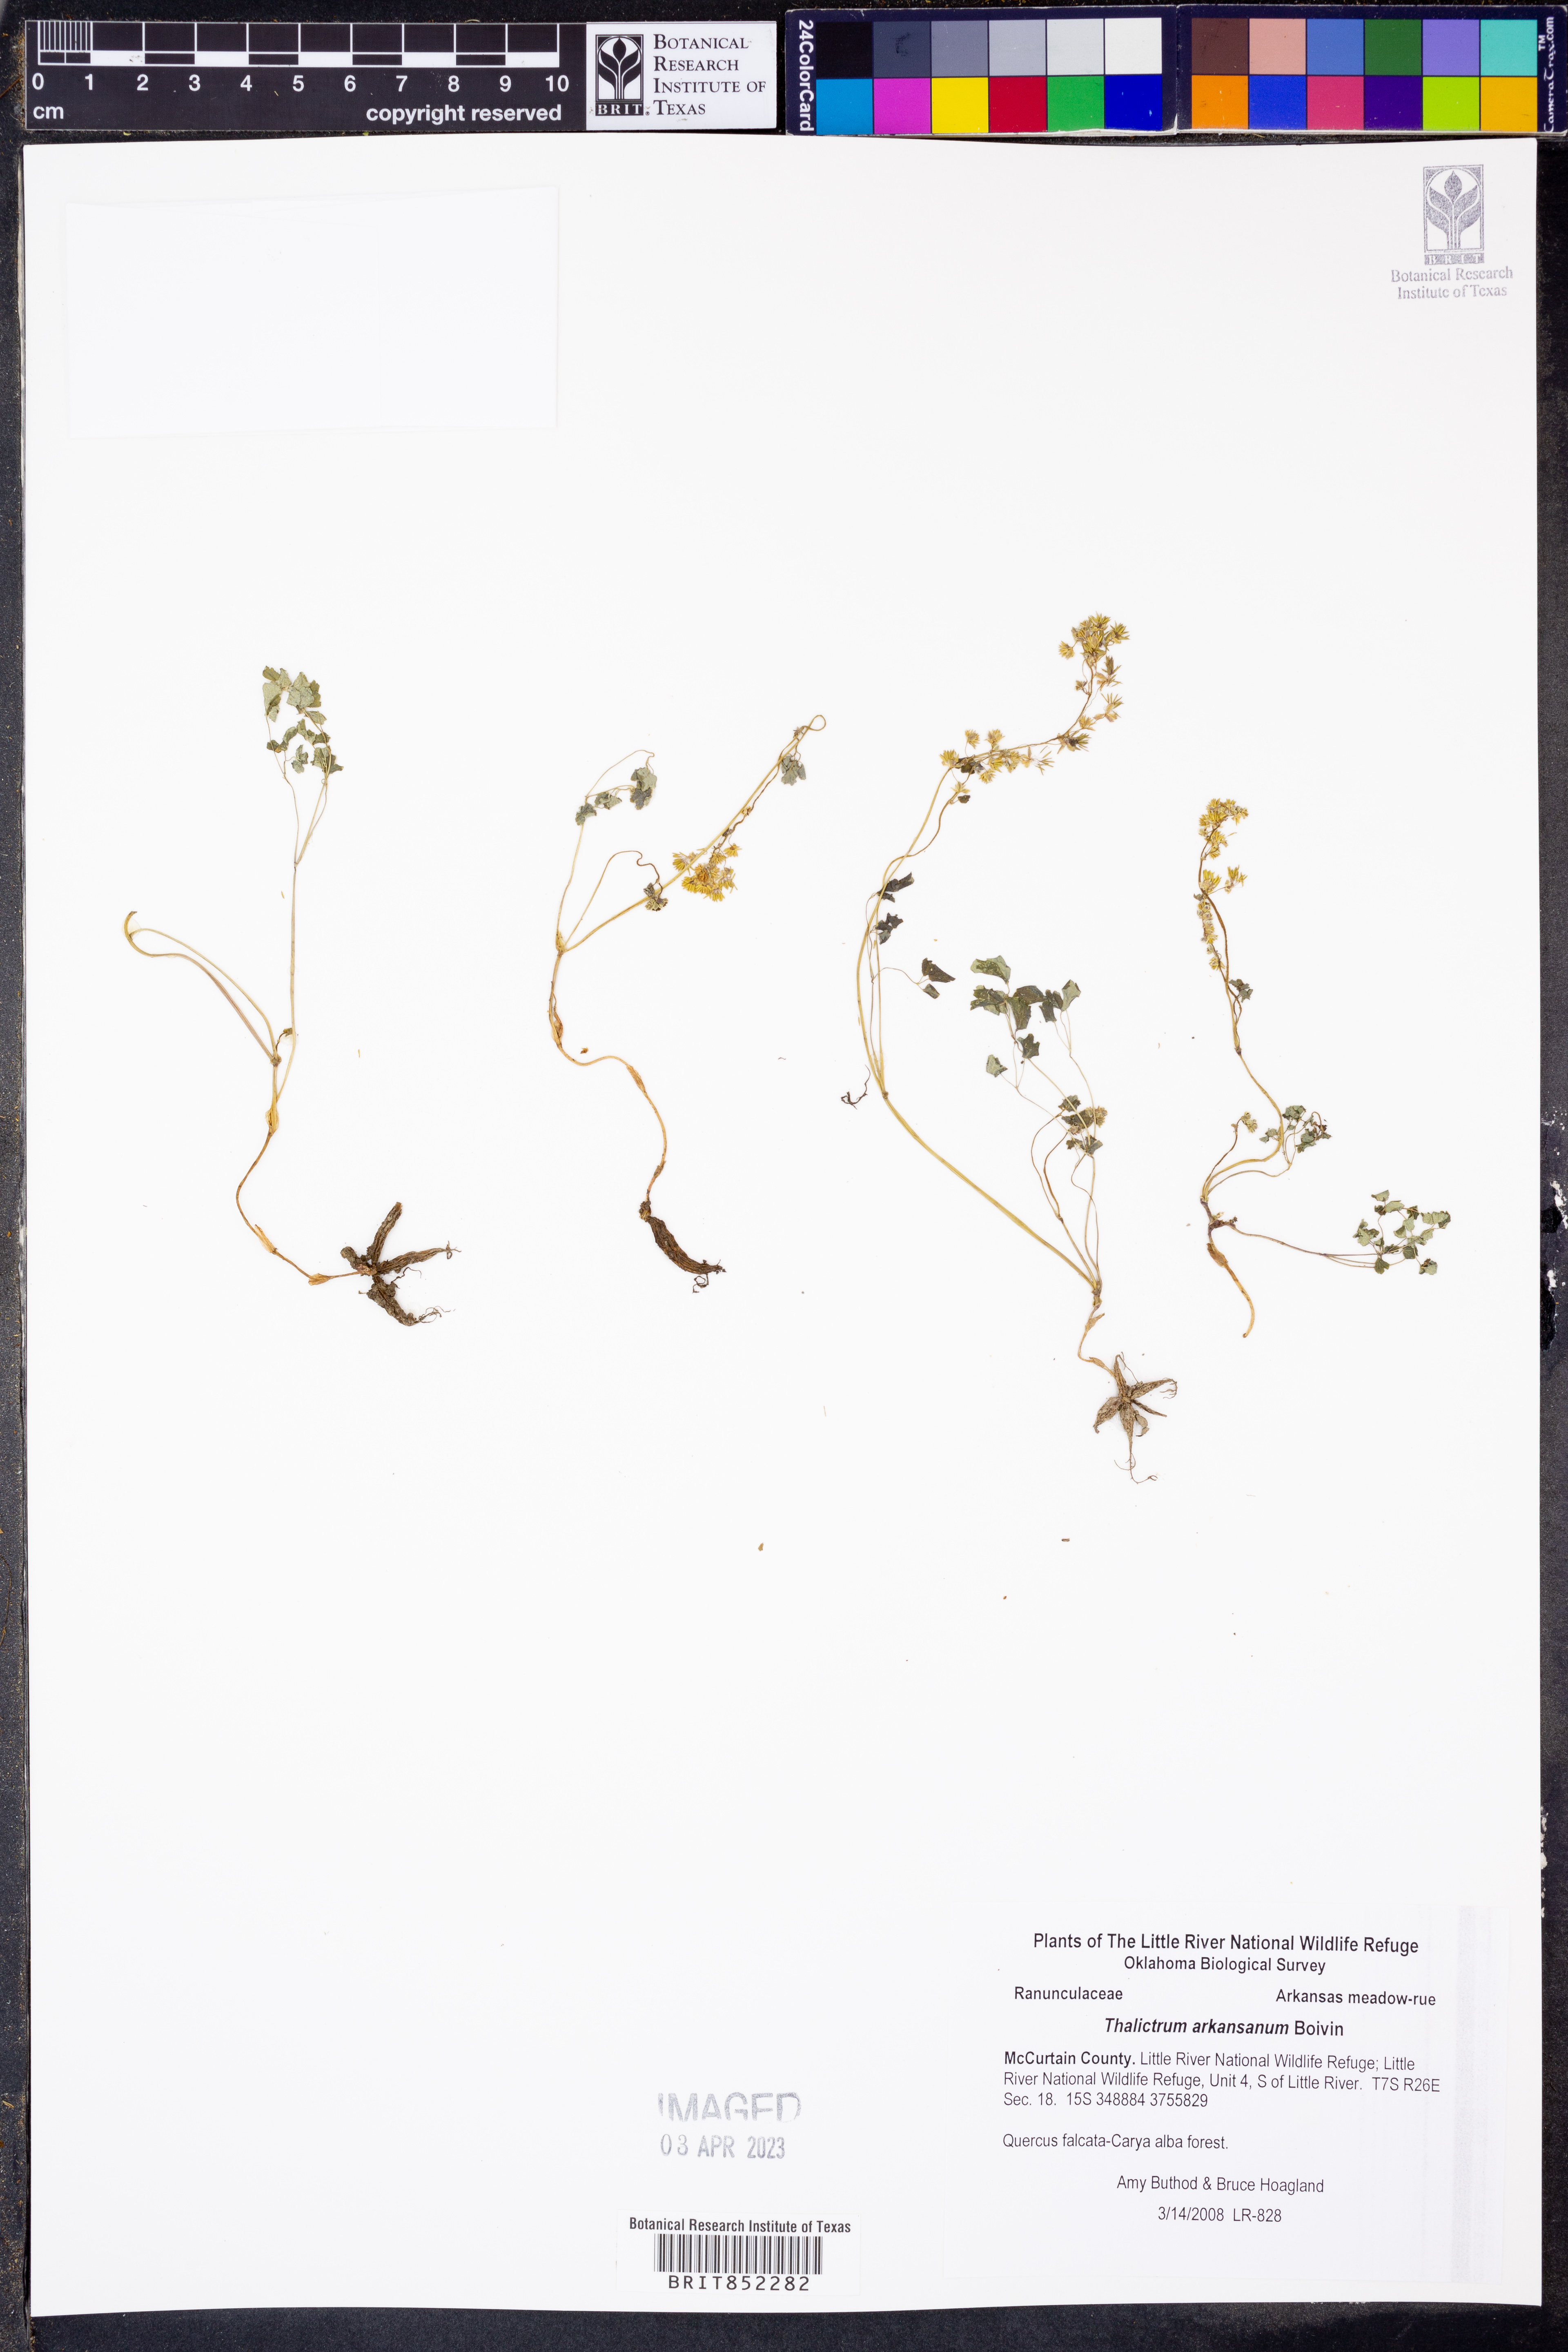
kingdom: Plantae
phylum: Tracheophyta
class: Magnoliopsida
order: Ranunculales
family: Ranunculaceae
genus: Thalictrum
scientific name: Thalictrum arkansanum
